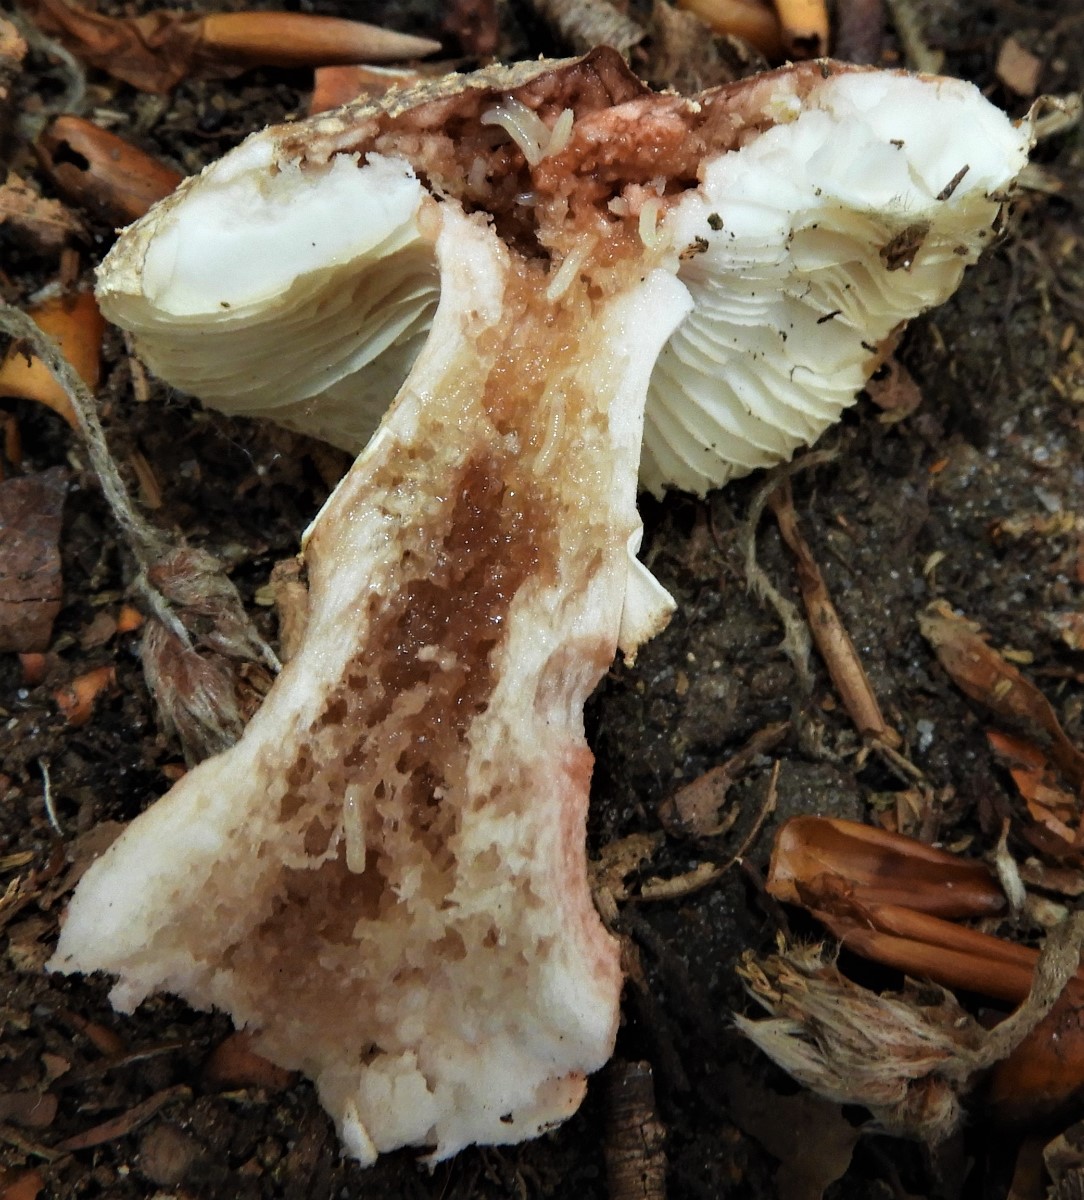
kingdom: Fungi
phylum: Basidiomycota
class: Agaricomycetes
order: Agaricales
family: Amanitaceae
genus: Amanita
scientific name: Amanita rubescens
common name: rødmende fluesvamp
